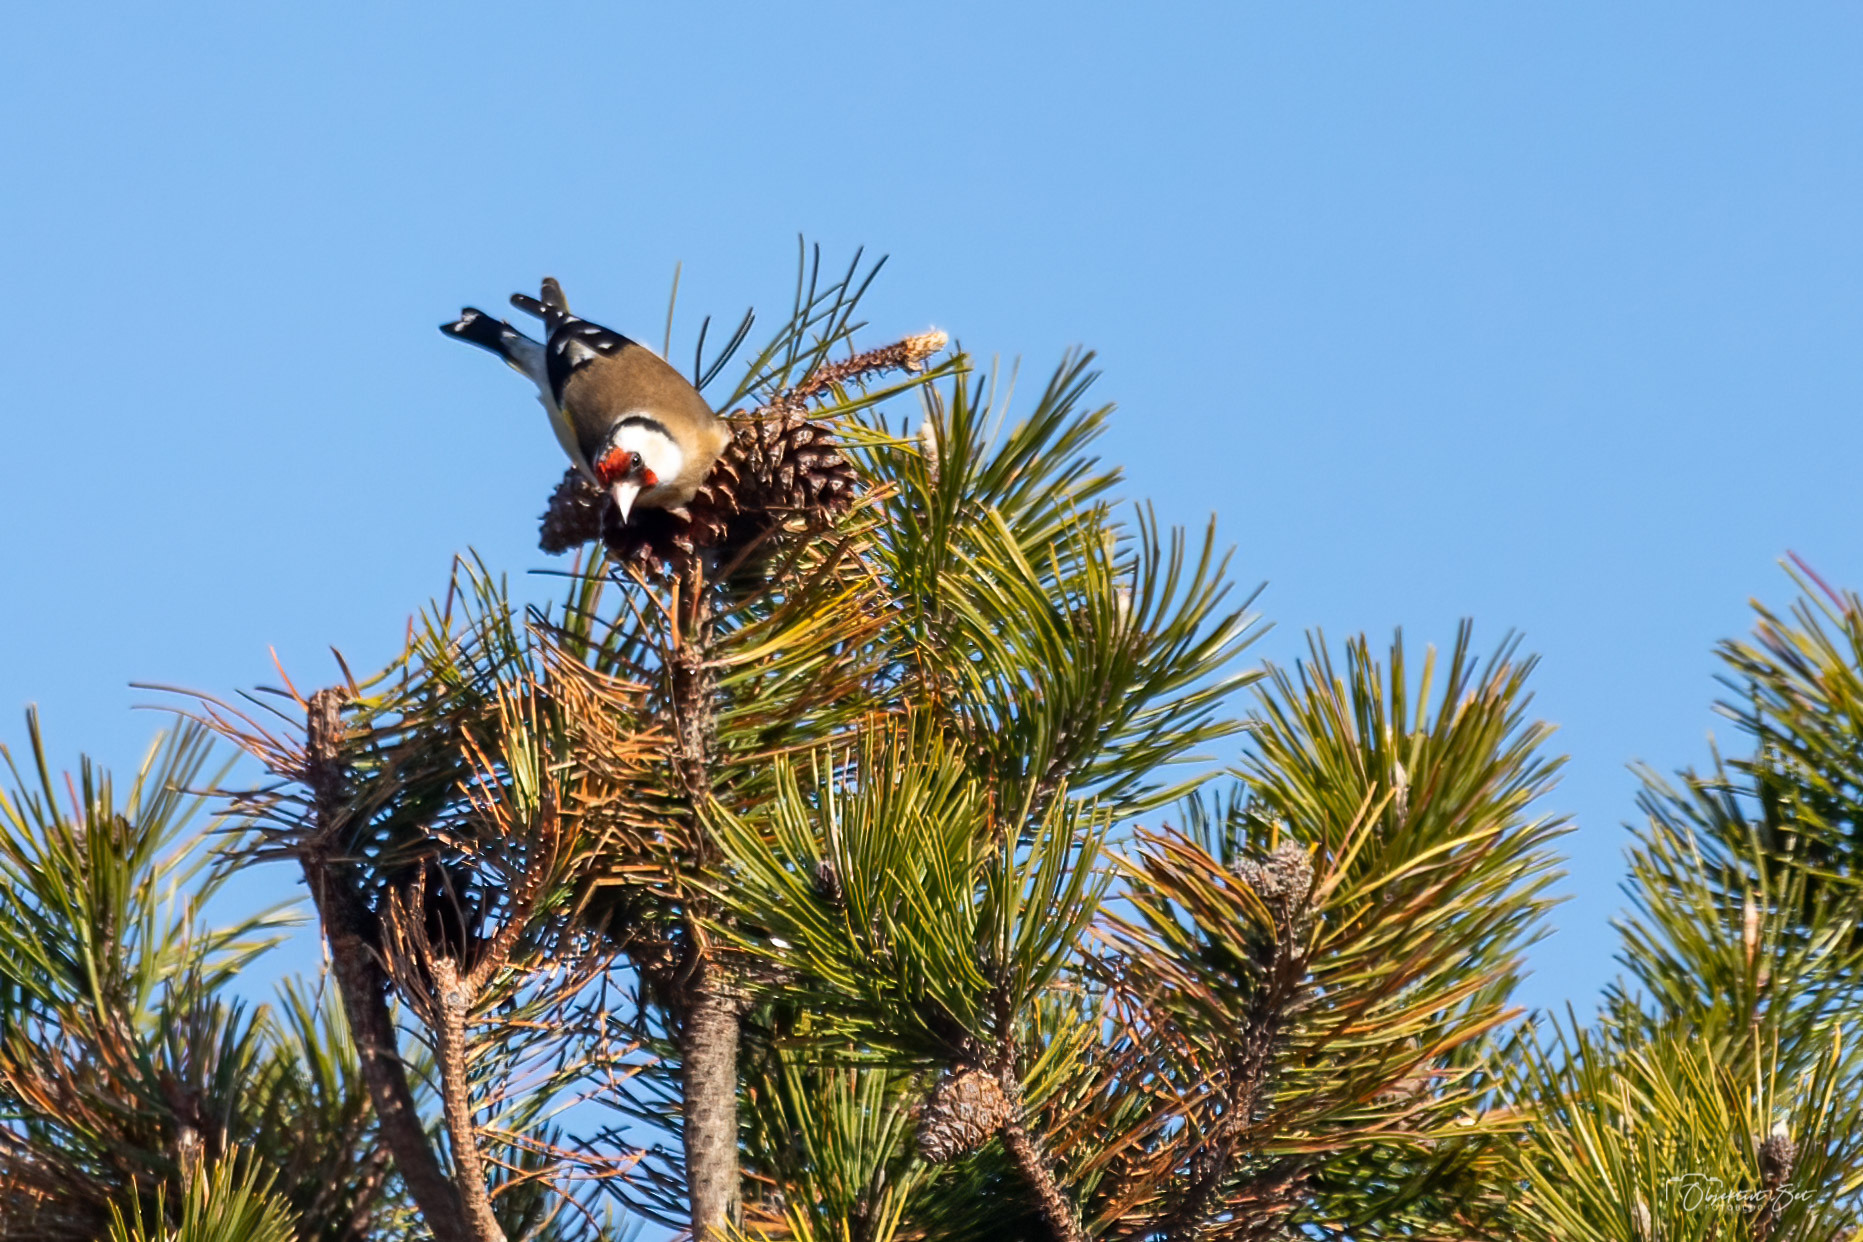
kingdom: Animalia
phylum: Chordata
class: Aves
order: Passeriformes
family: Fringillidae
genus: Carduelis
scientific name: Carduelis carduelis
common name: Stillits
